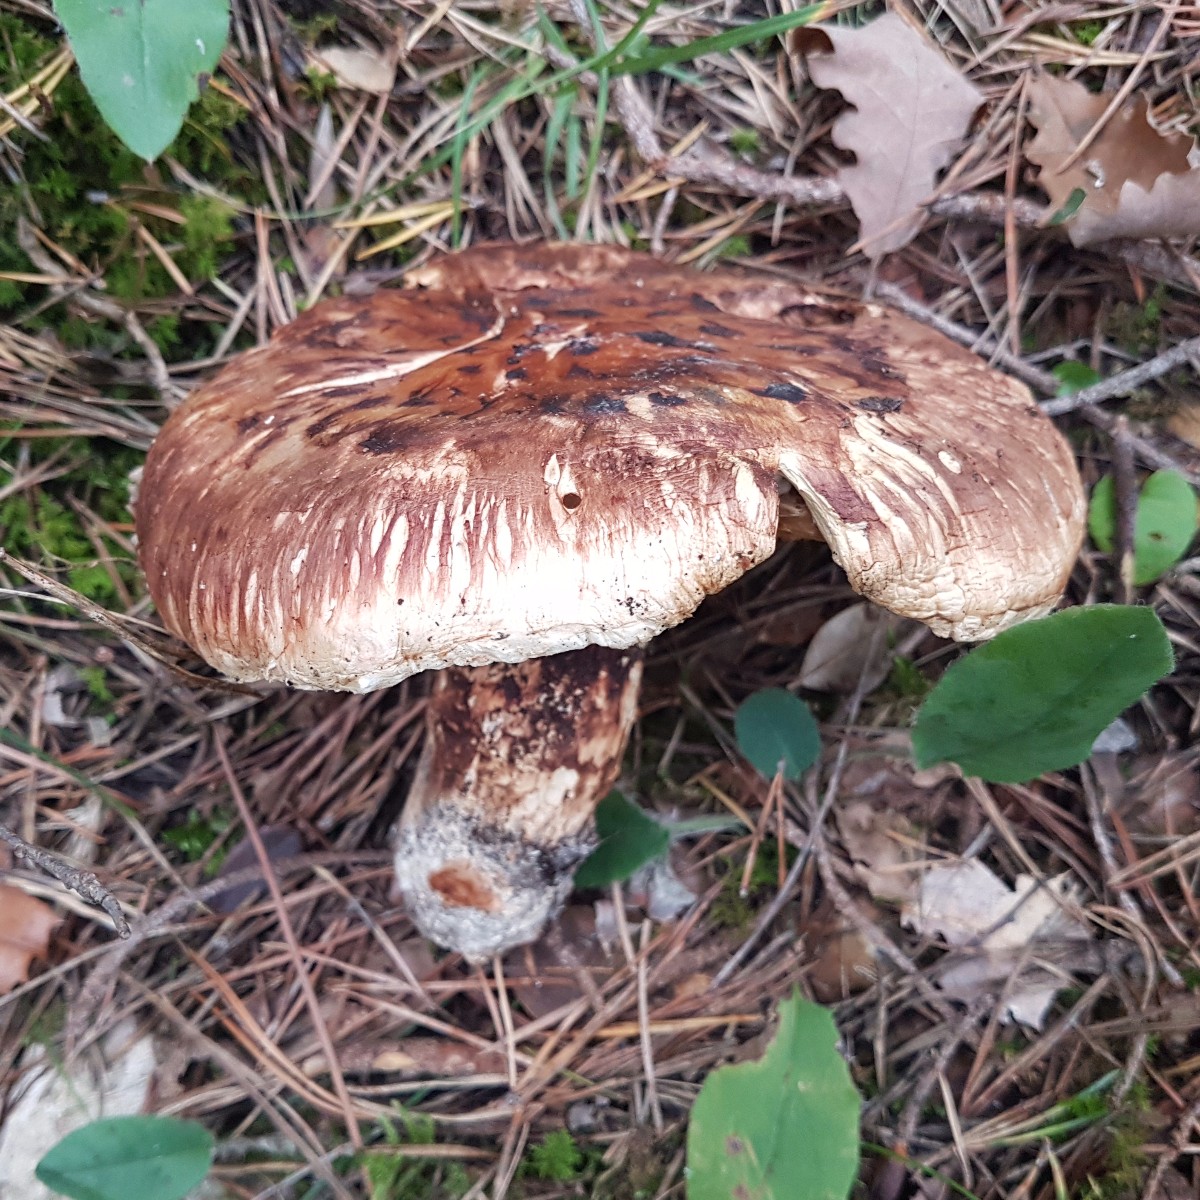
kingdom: Fungi
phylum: Basidiomycota
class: Agaricomycetes
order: Agaricales
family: Tricholomataceae
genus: Tricholoma
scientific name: Tricholoma caligatum
